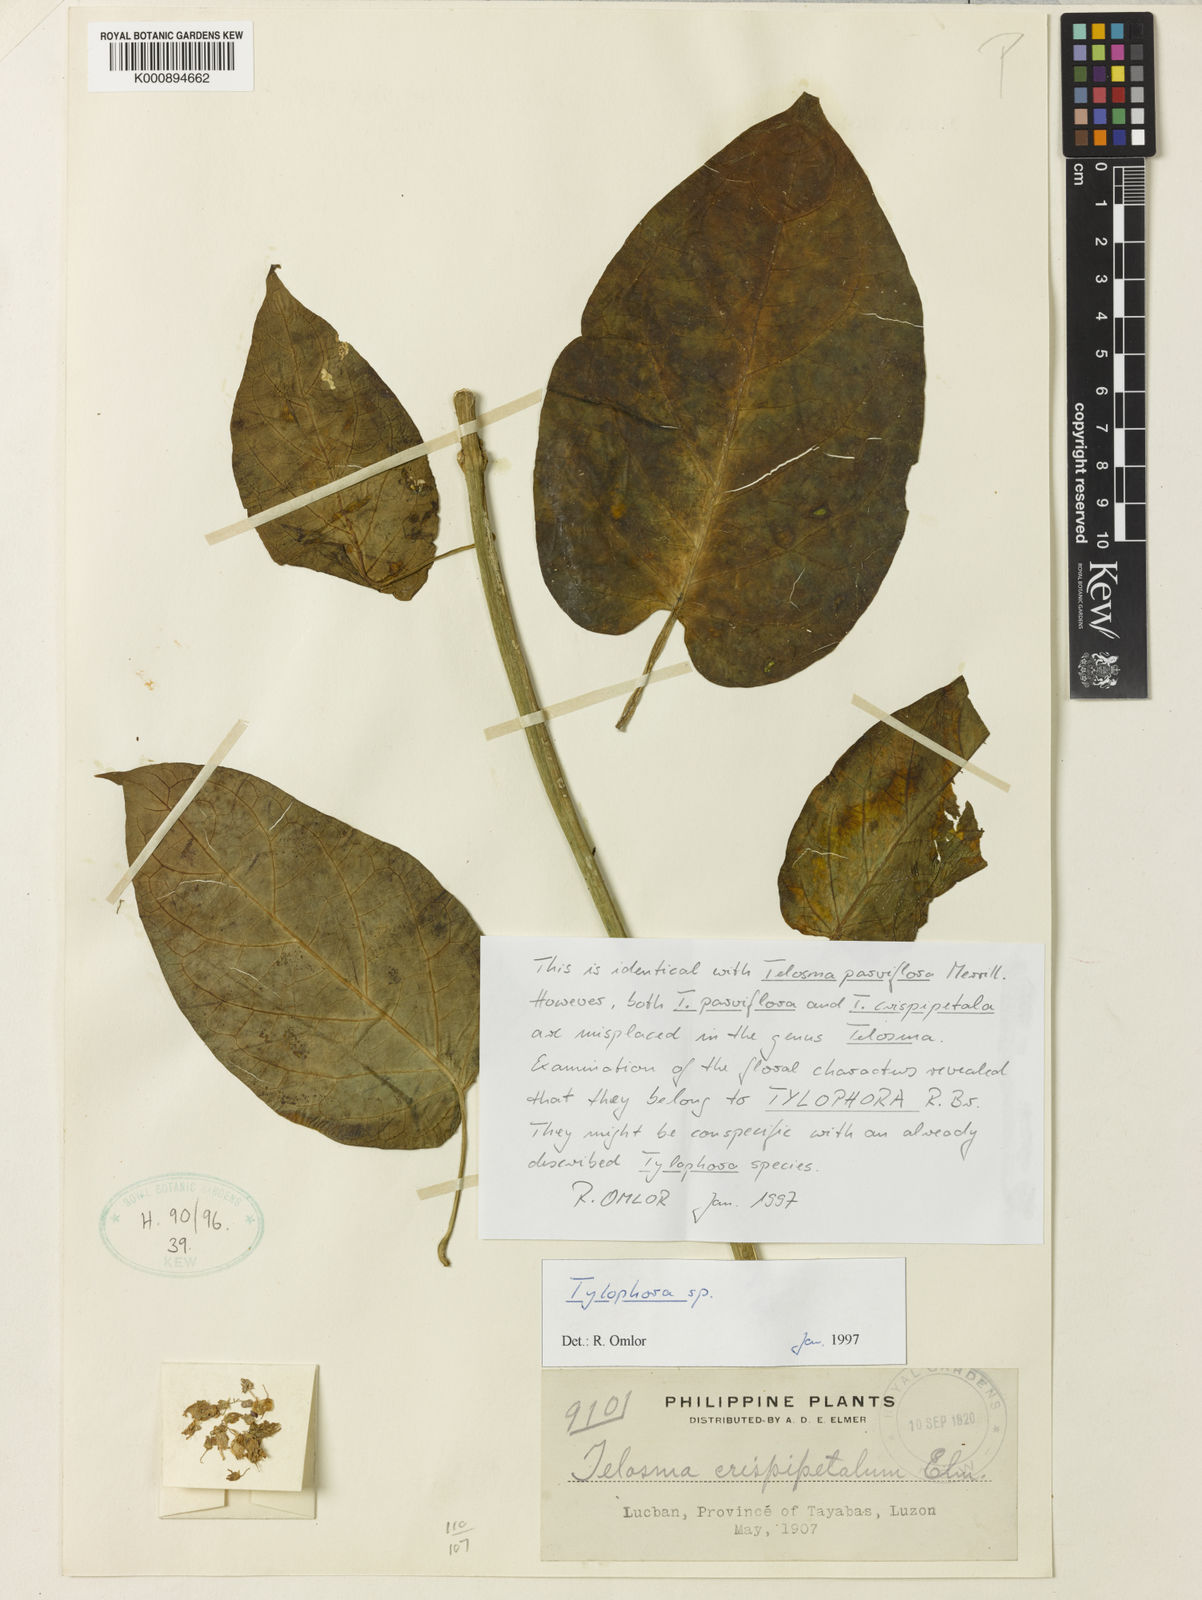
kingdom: Plantae
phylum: Tracheophyta
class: Magnoliopsida
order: Gentianales
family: Apocynaceae
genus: Vincetoxicum
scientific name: Vincetoxicum philippicum
